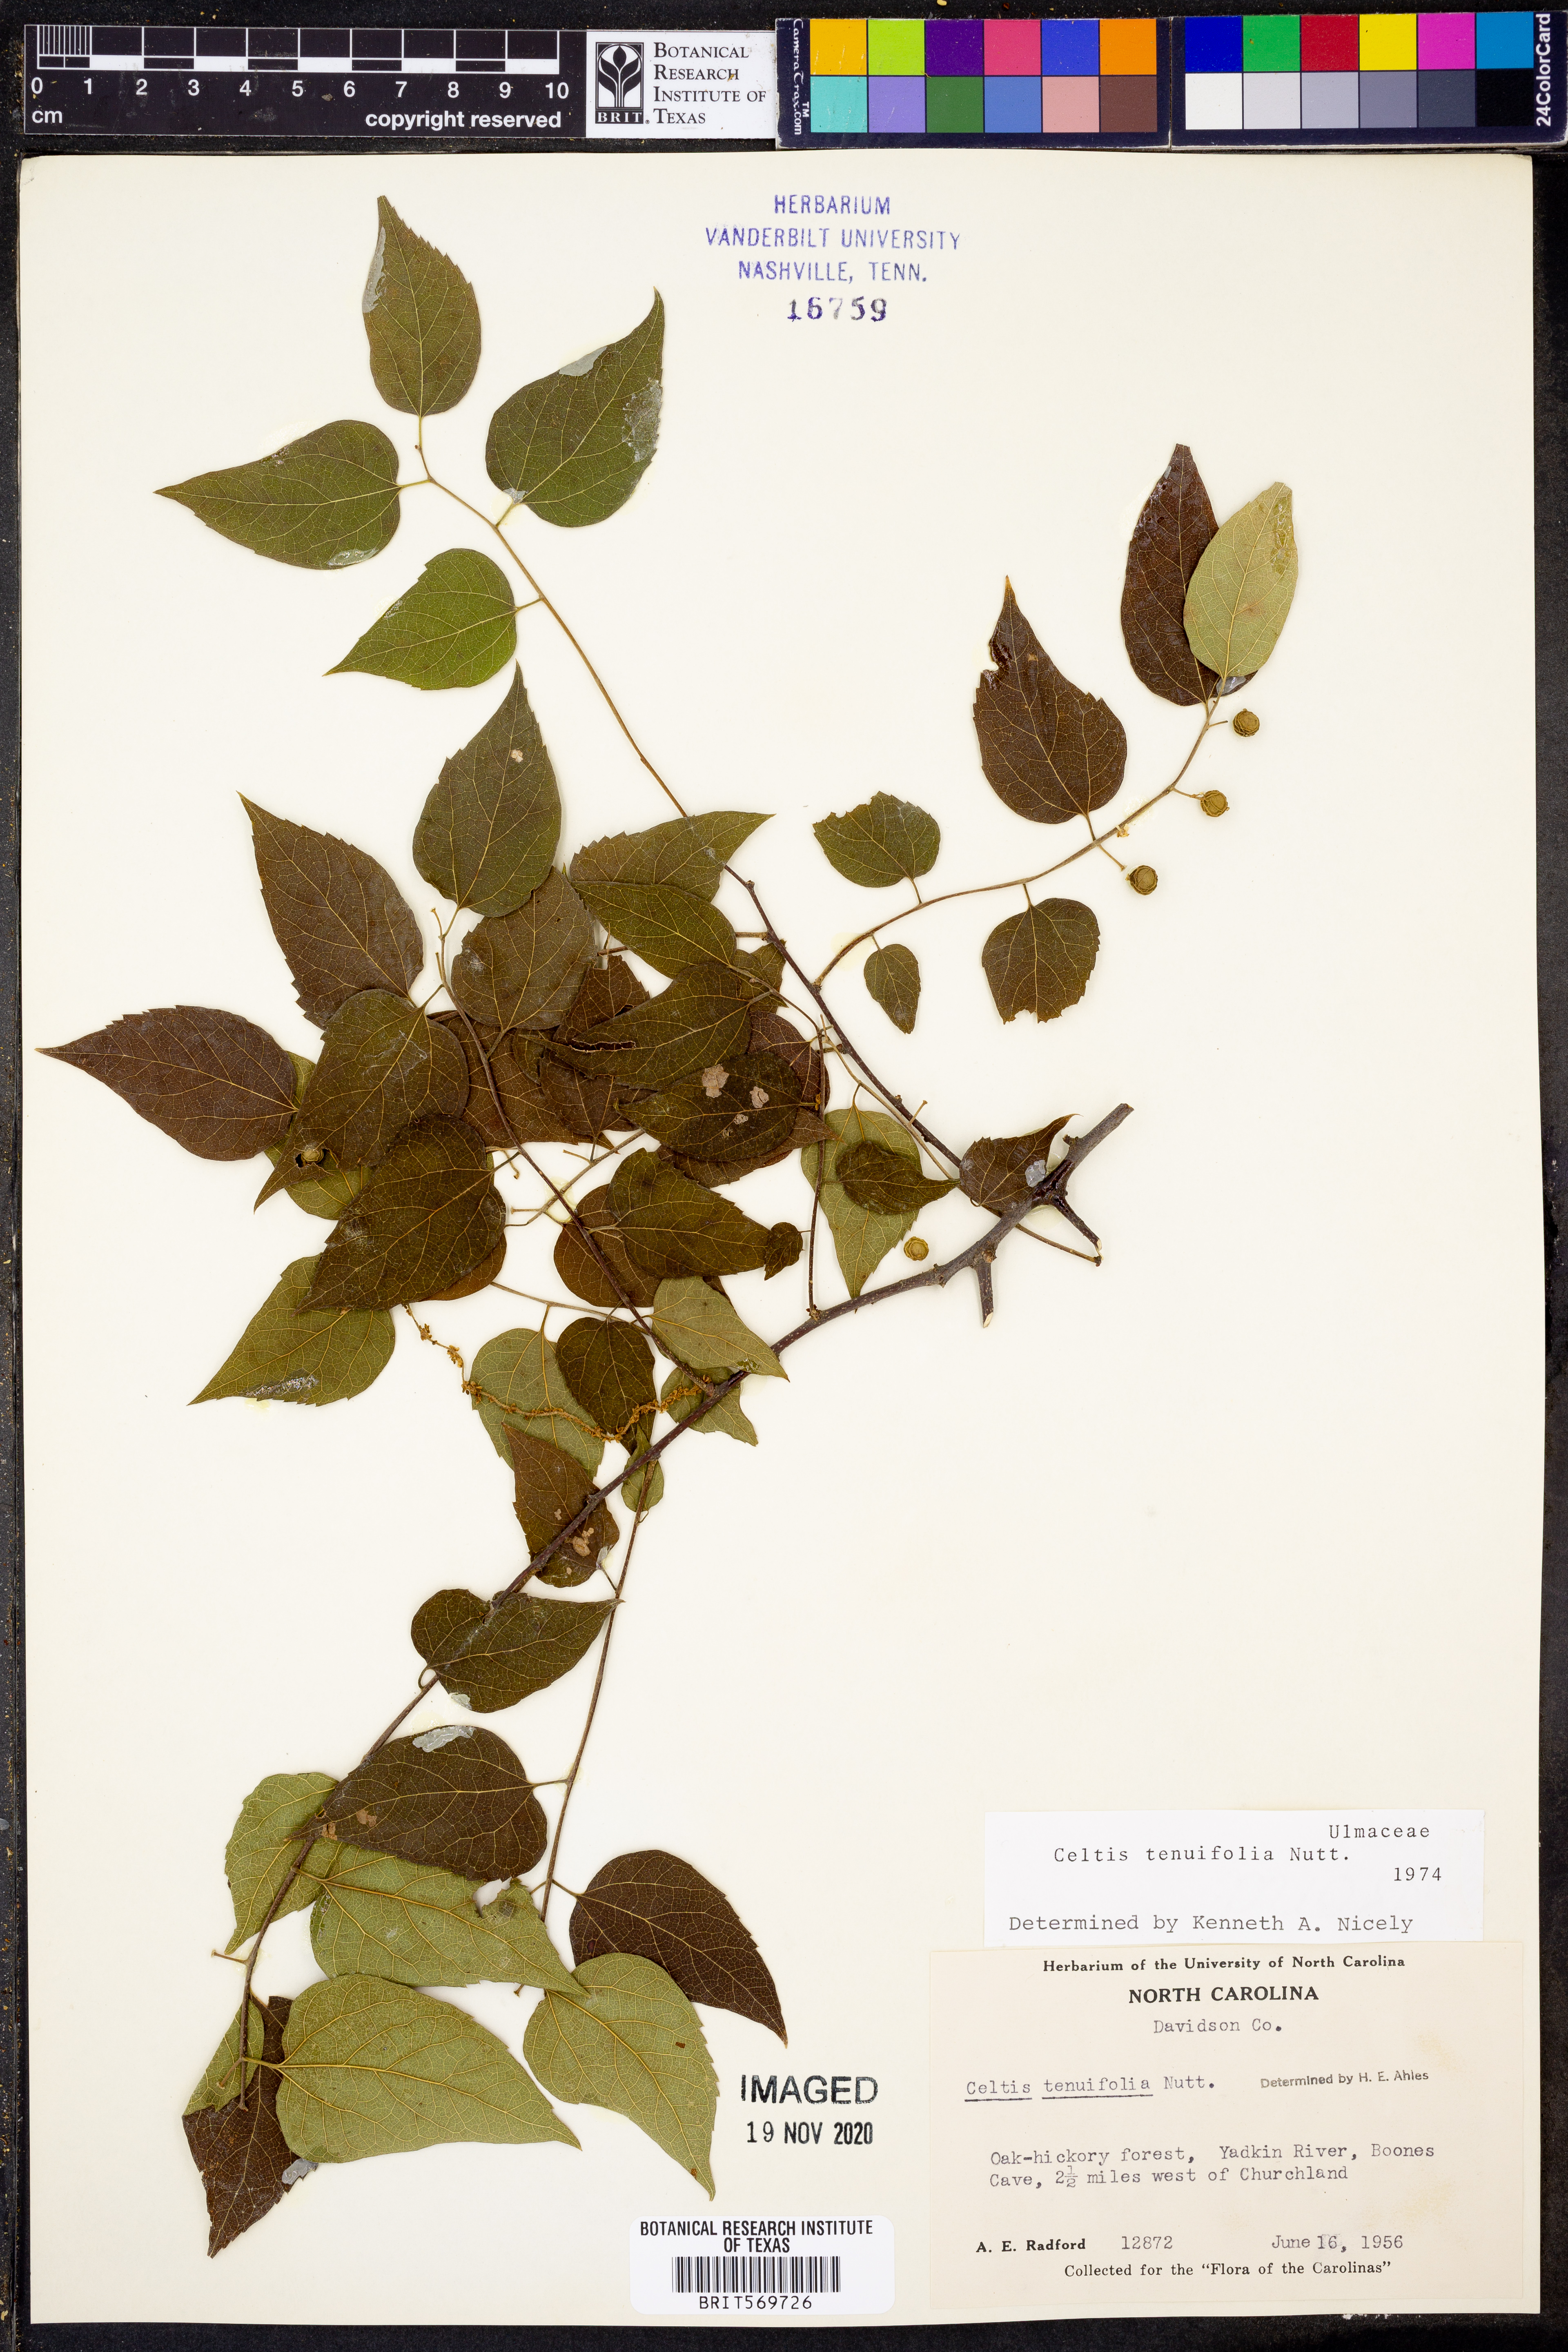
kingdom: Plantae
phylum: Tracheophyta
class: Magnoliopsida
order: Rosales
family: Cannabaceae
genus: Celtis
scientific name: Celtis tenuifolia
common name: Georgia hackberry
